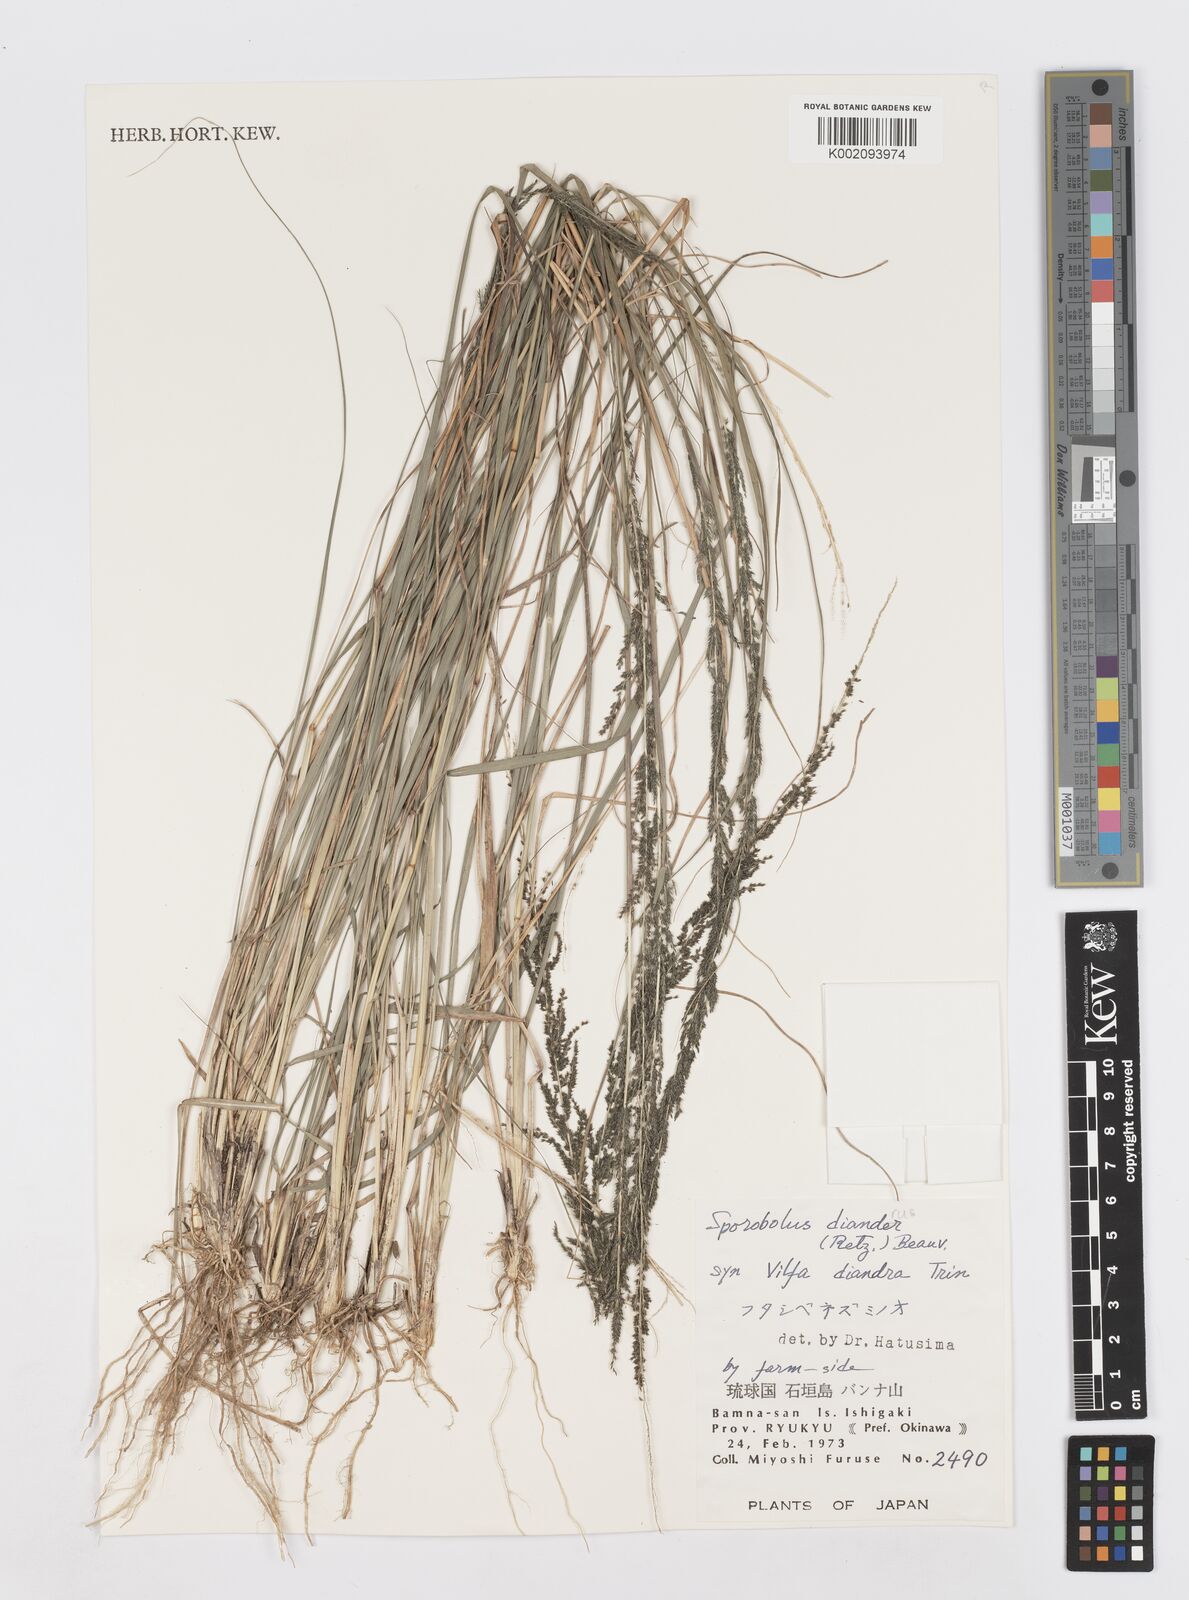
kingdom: Plantae
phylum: Tracheophyta
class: Liliopsida
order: Poales
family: Poaceae
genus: Sporobolus
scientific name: Sporobolus diandrus
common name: Tussock dropseed
